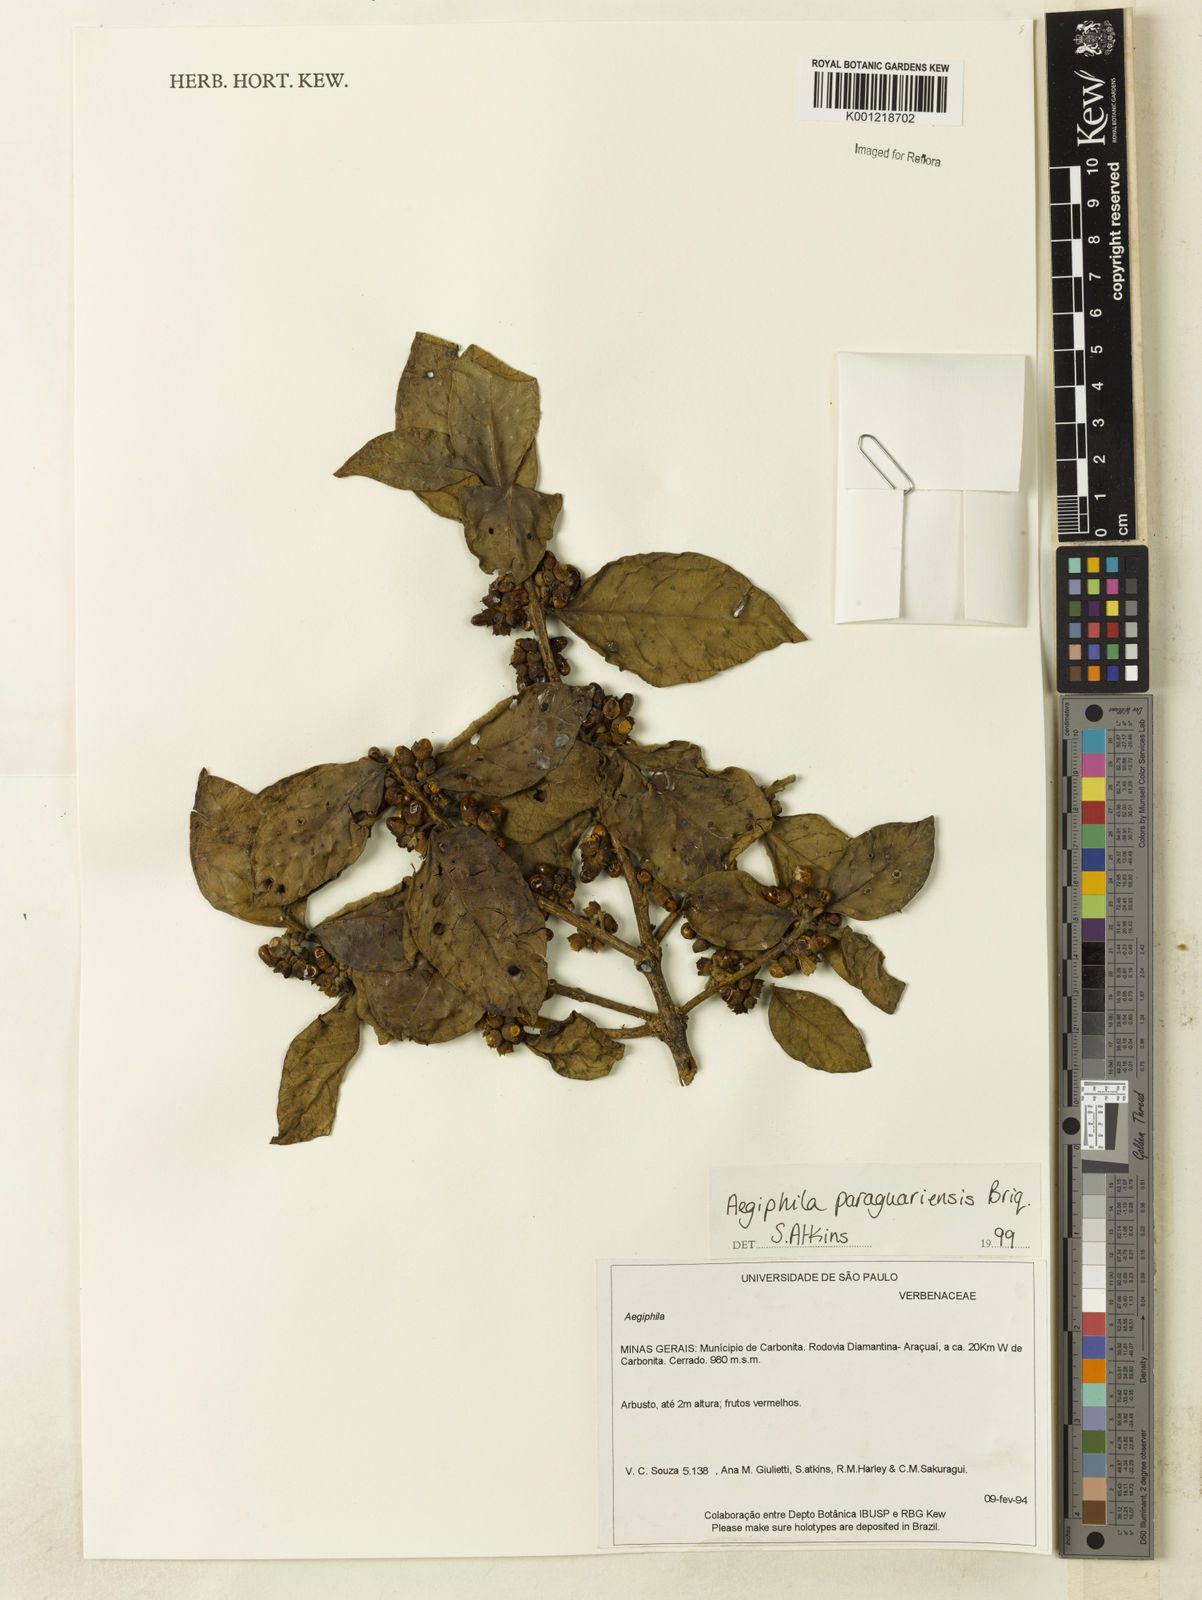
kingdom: Plantae
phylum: Tracheophyta
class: Magnoliopsida
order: Lamiales
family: Lamiaceae
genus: Aegiphila
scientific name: Aegiphila paraguariensis
